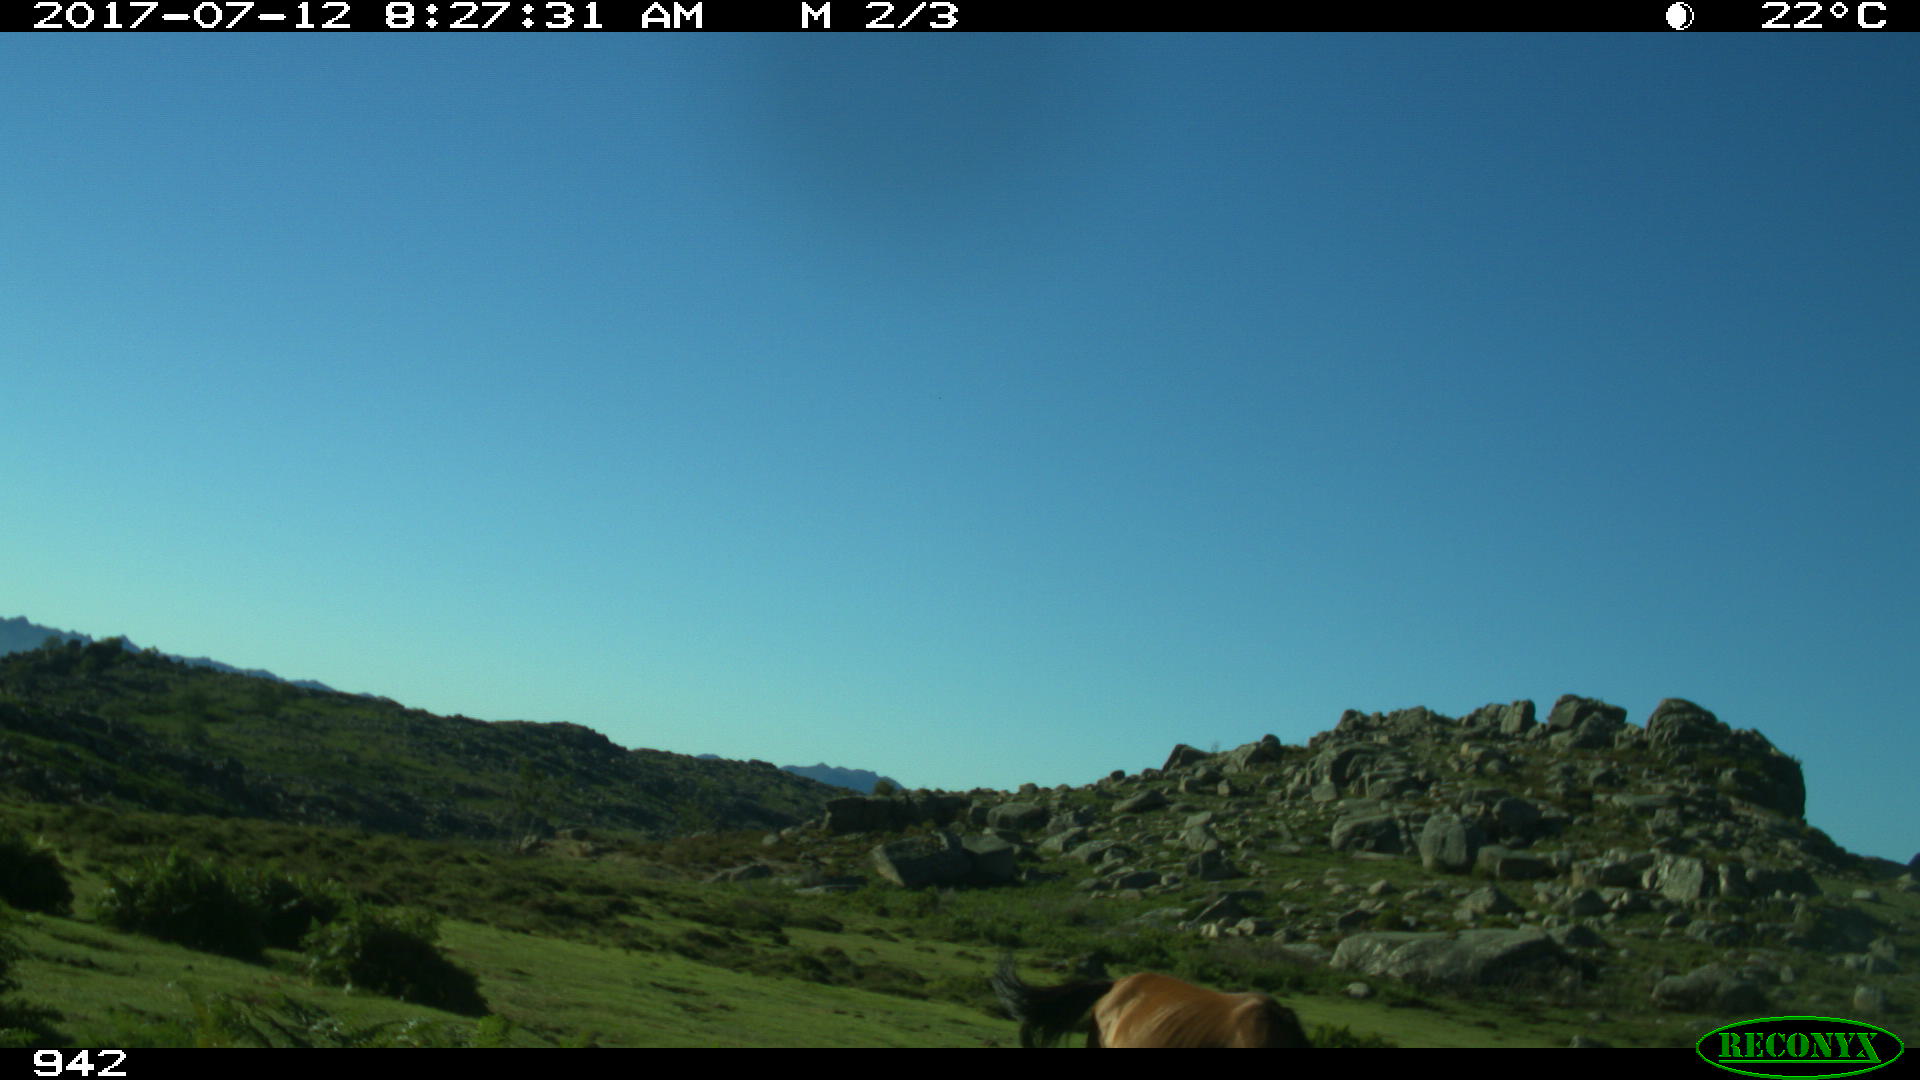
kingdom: Animalia
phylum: Chordata
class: Mammalia
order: Perissodactyla
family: Equidae
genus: Equus
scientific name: Equus caballus
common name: Horse
